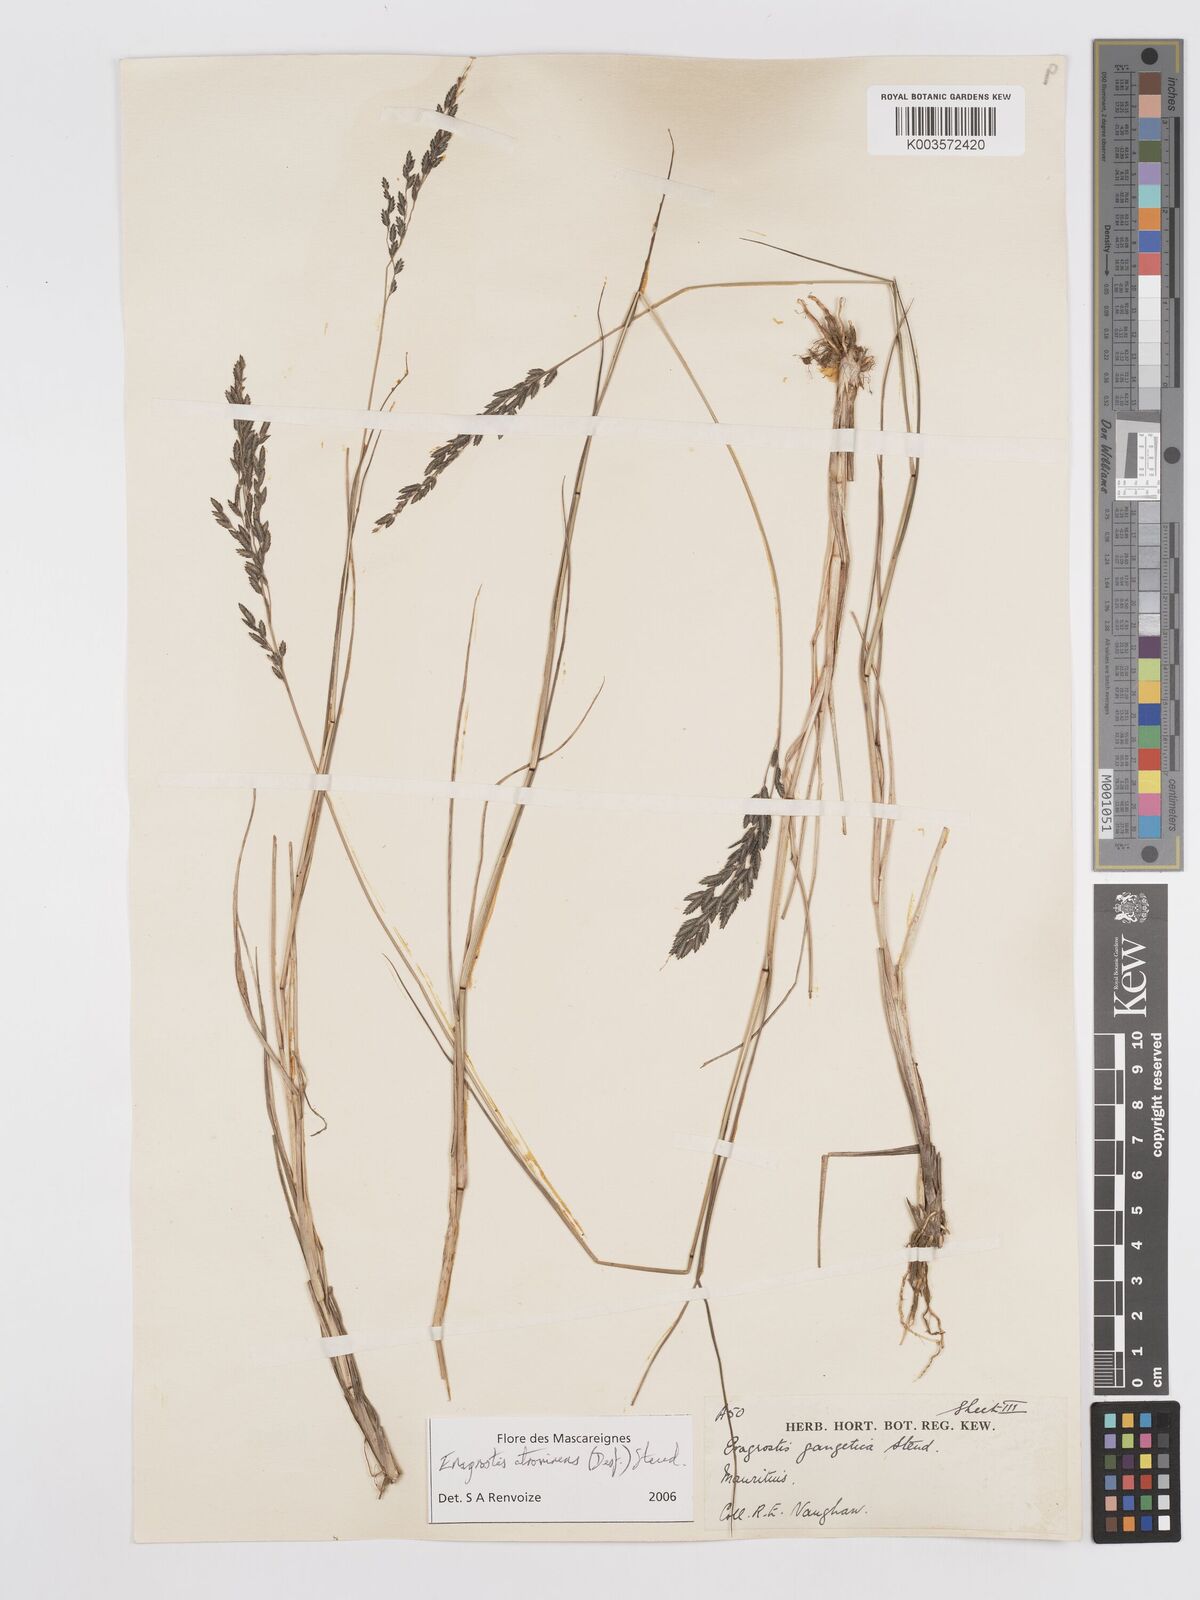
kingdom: Plantae
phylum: Tracheophyta
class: Liliopsida
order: Poales
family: Poaceae
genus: Eragrostis
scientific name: Eragrostis papposa
